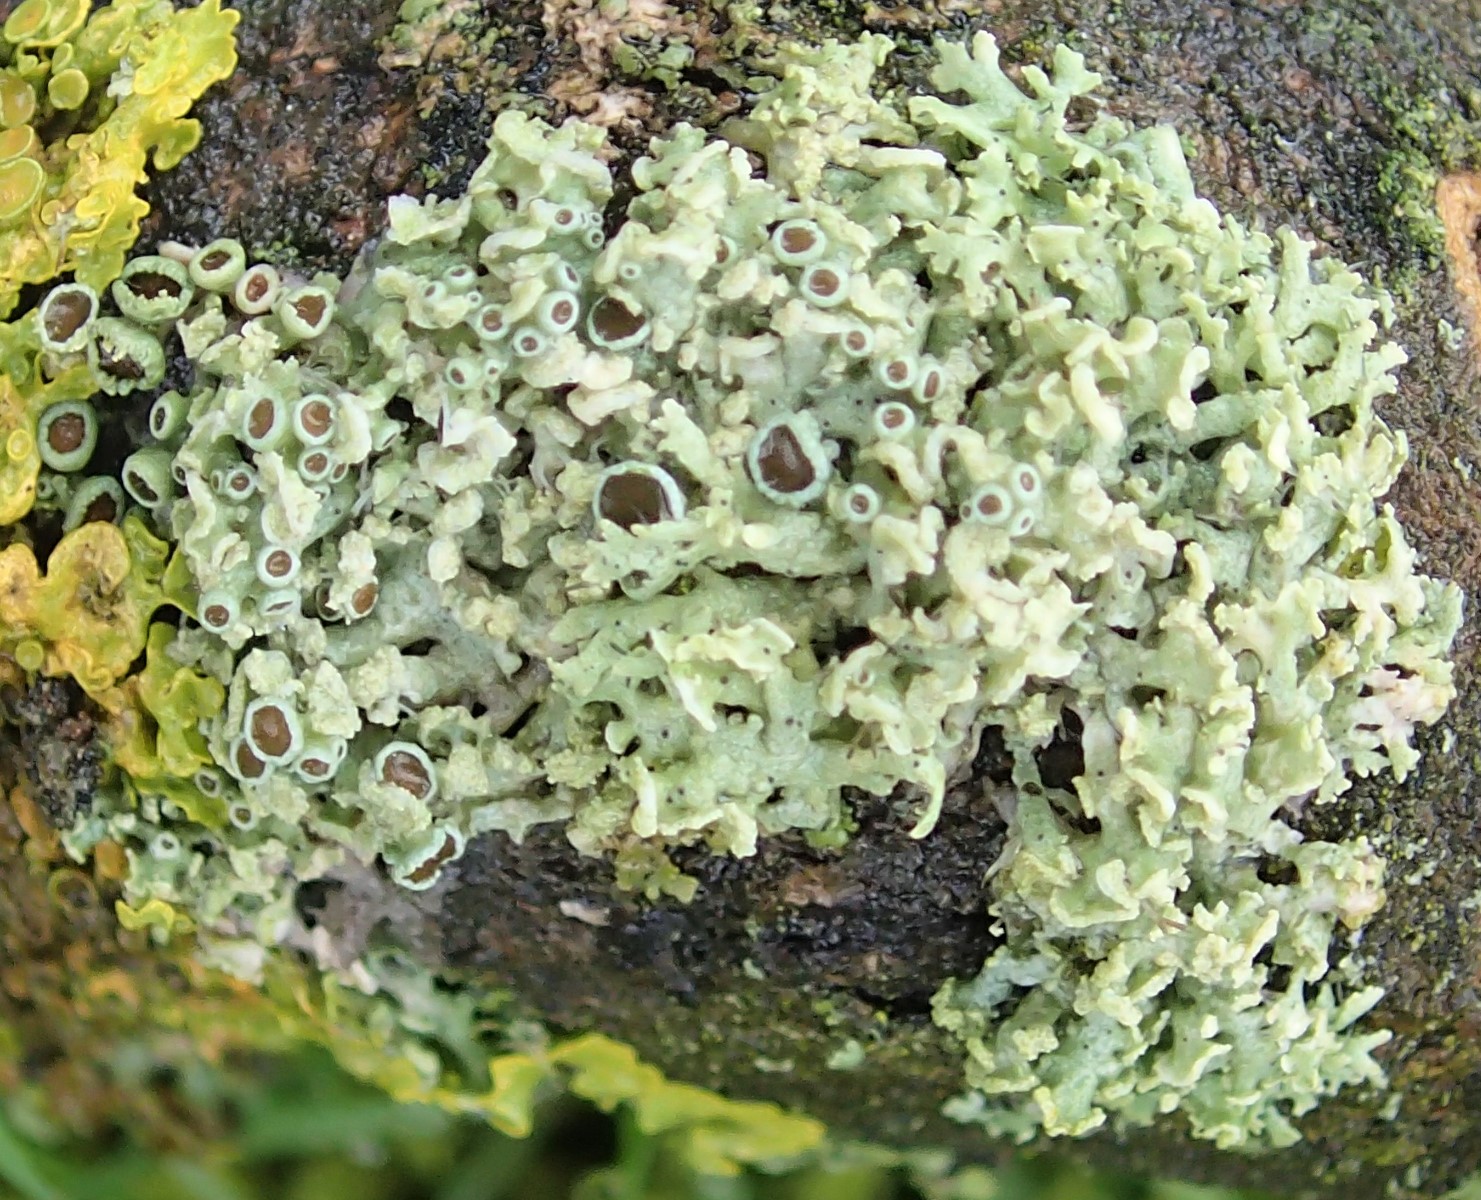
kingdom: Fungi
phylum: Ascomycota
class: Lecanoromycetes
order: Caliciales
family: Physciaceae
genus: Physcia
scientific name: Physcia tenella
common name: spæd rosetlav
